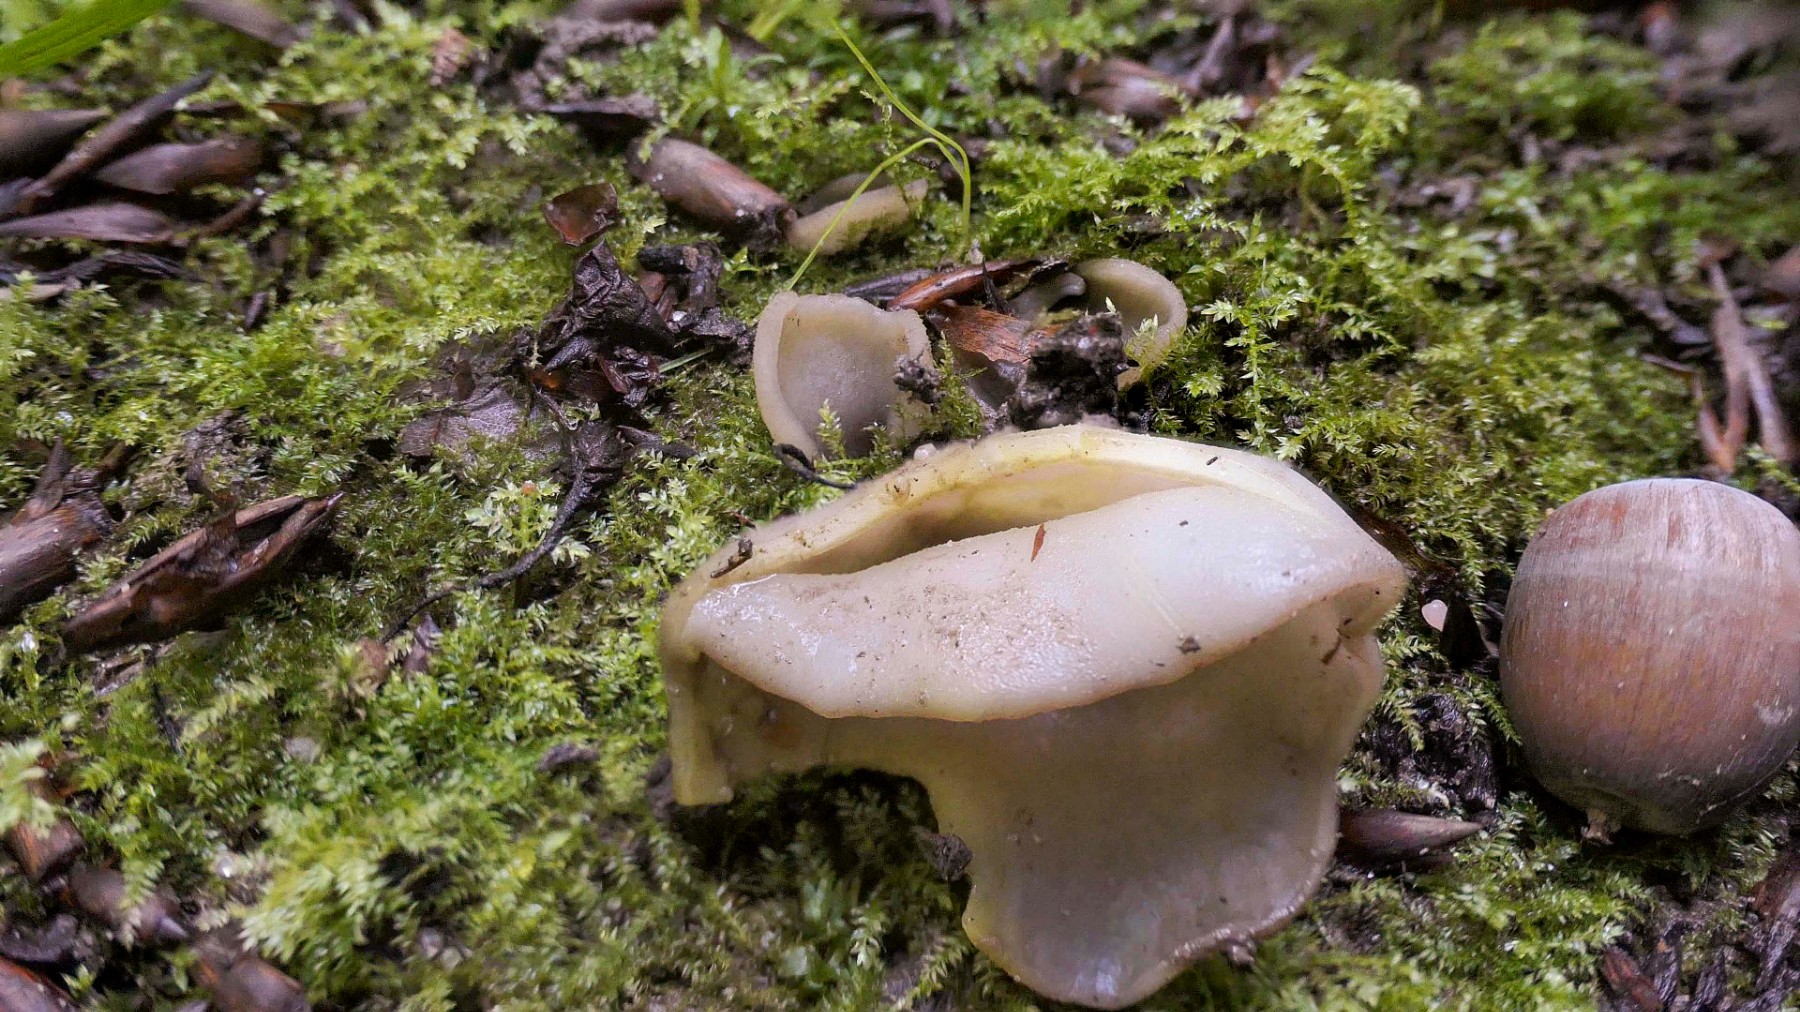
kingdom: Fungi
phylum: Ascomycota
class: Pezizomycetes
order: Pezizales
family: Pezizaceae
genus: Peziza
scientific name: Peziza
